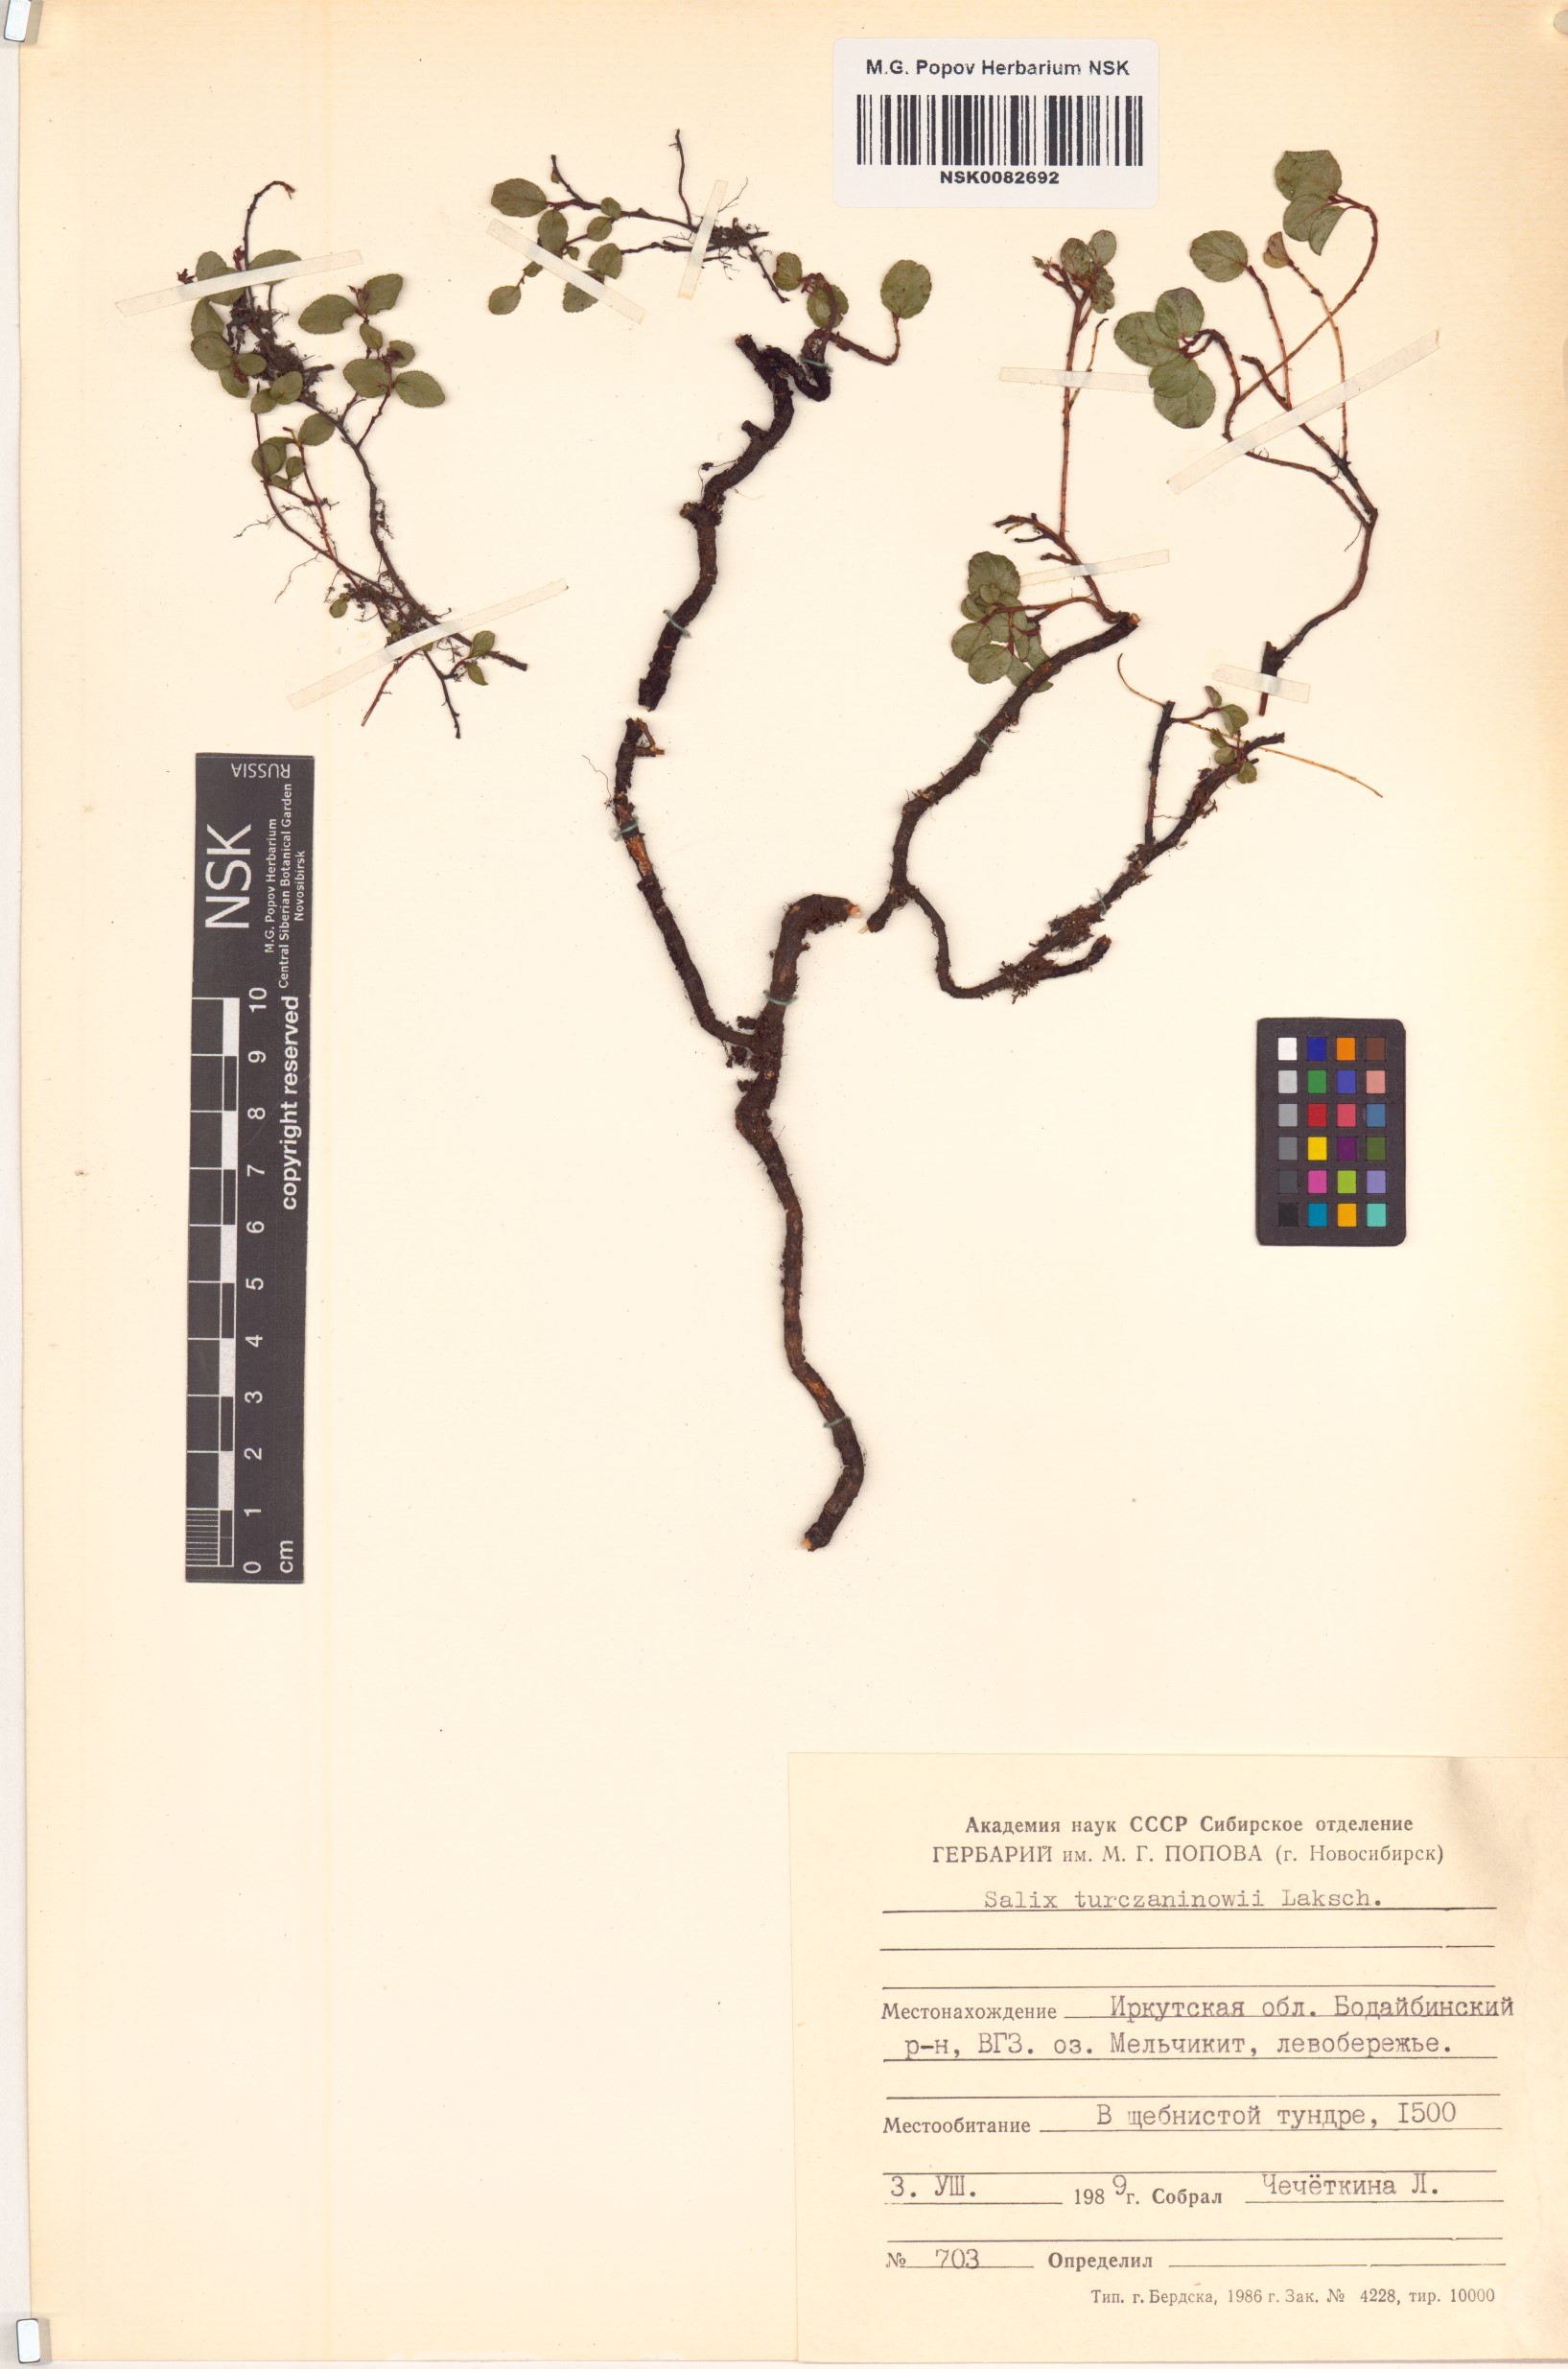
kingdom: Plantae
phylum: Tracheophyta
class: Magnoliopsida
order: Malpighiales
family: Salicaceae
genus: Salix
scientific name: Salix turczaninowii
